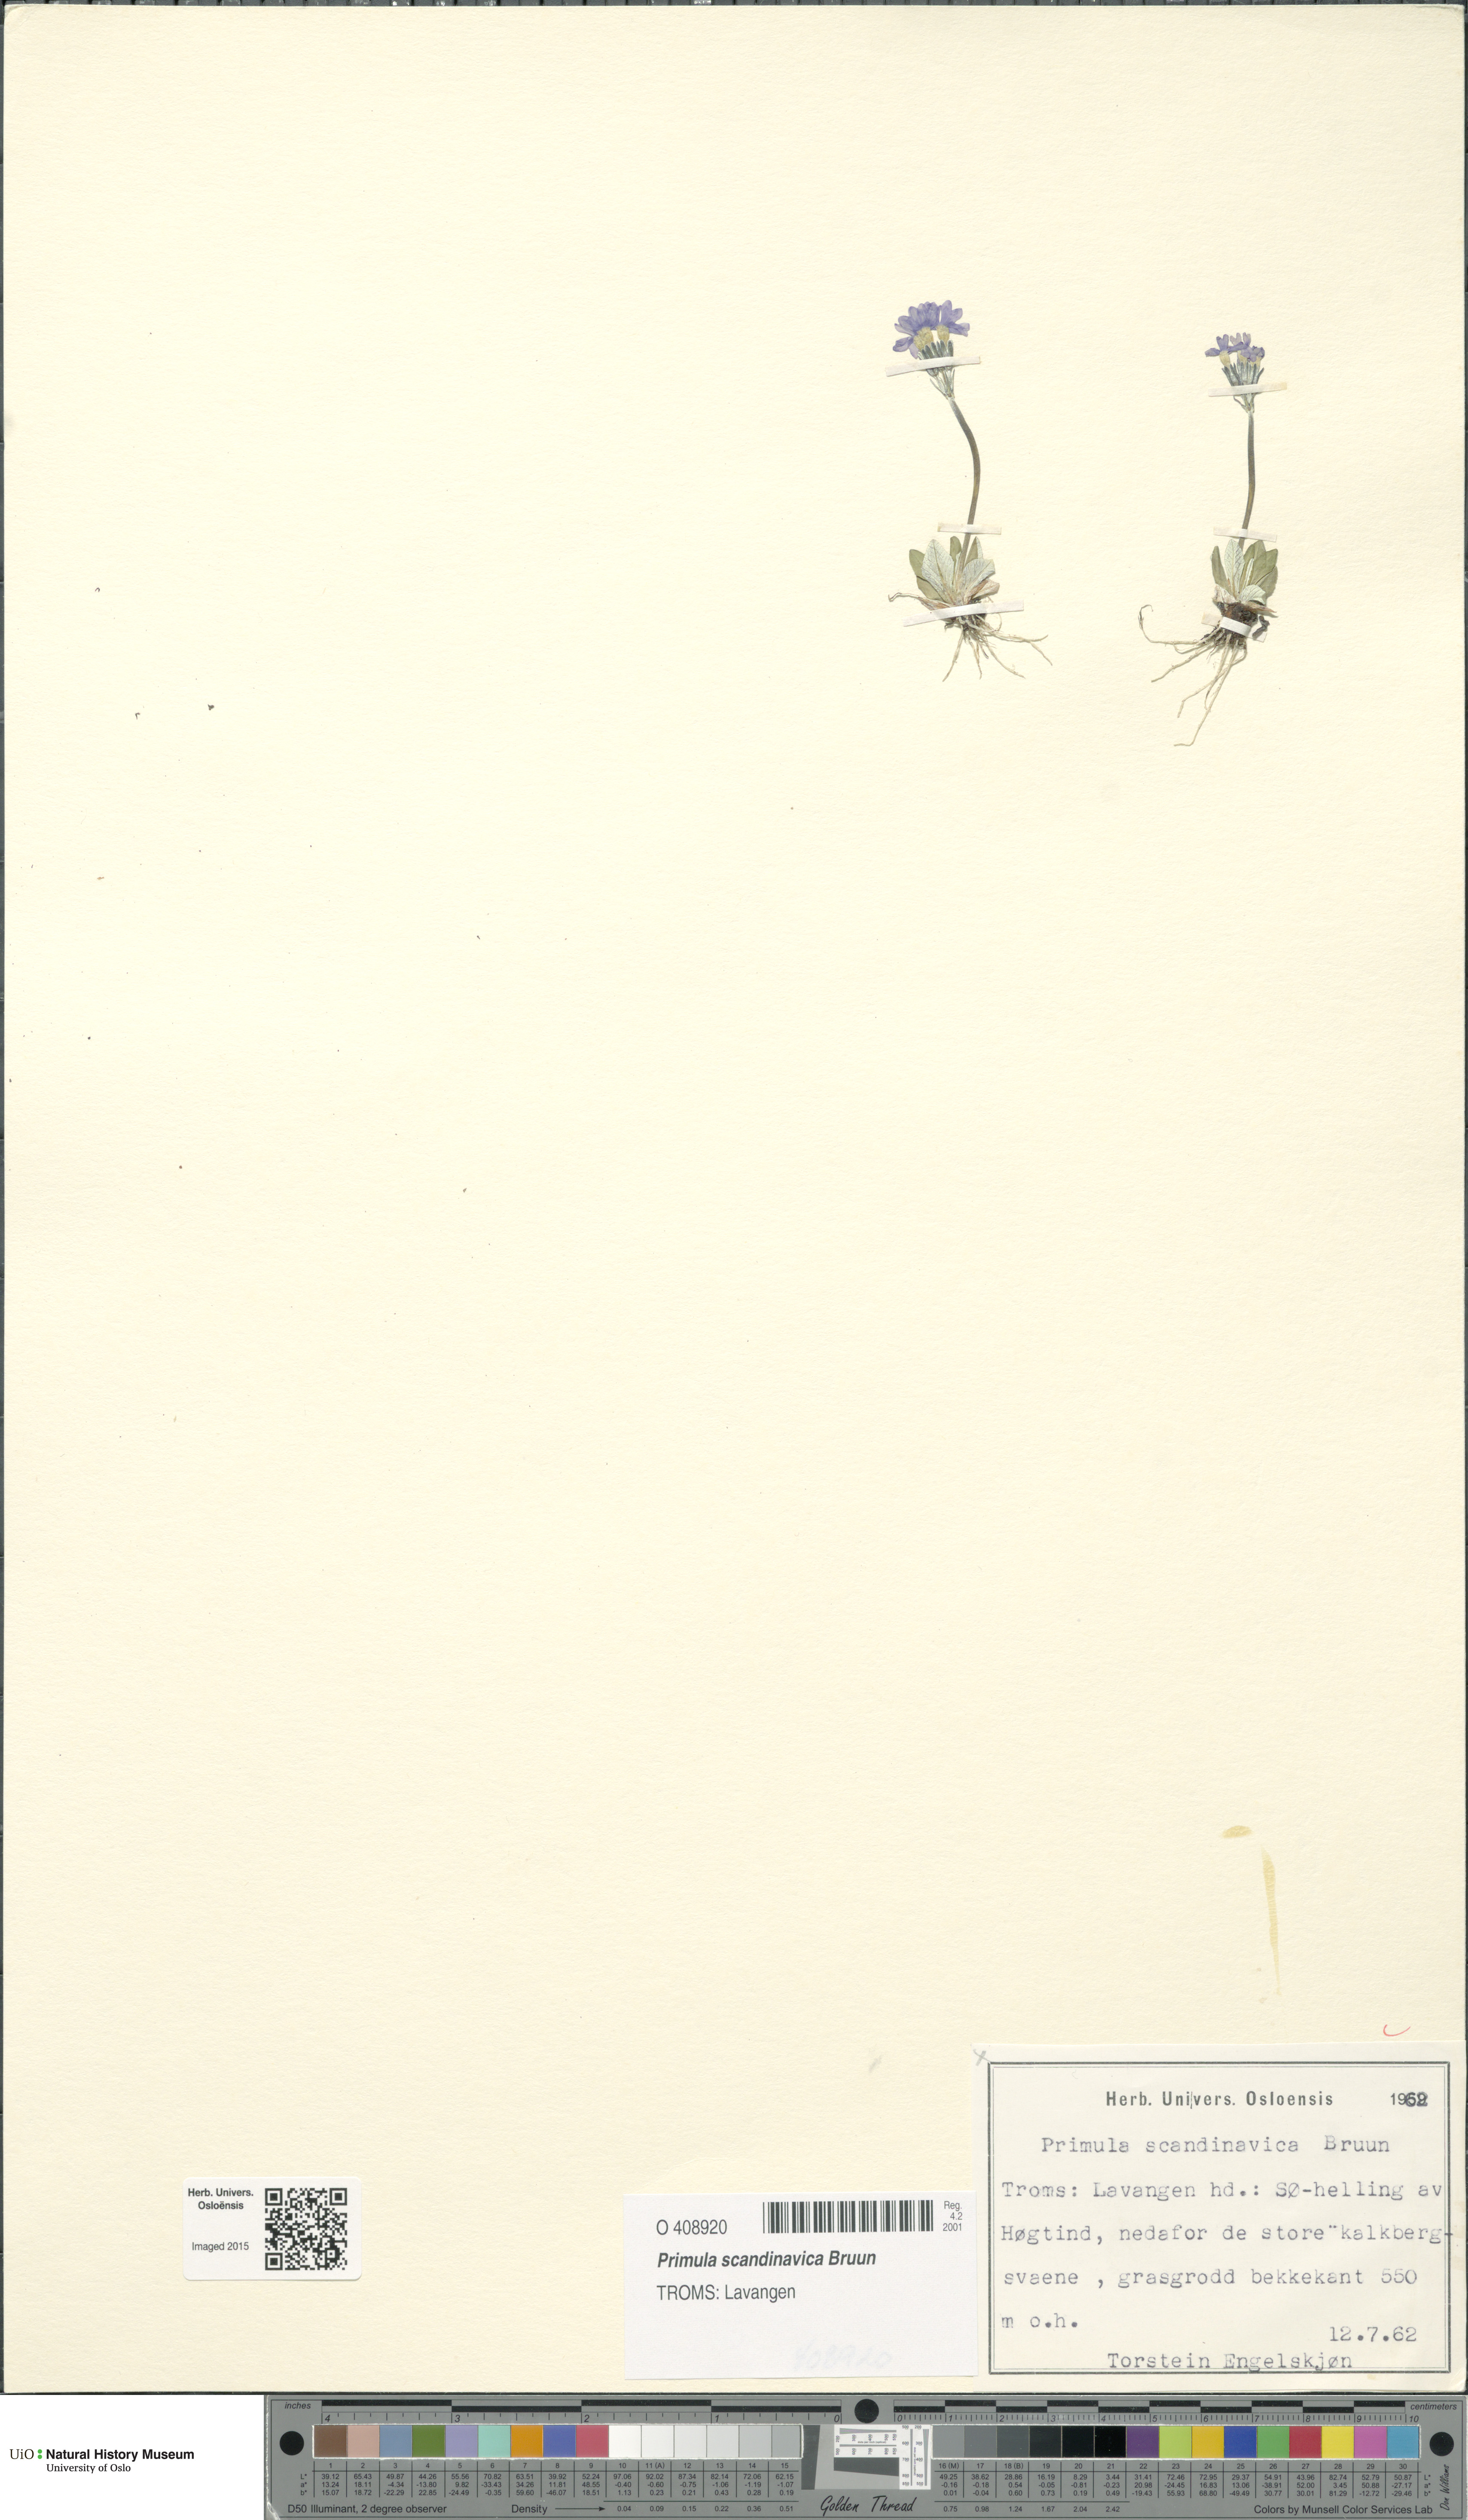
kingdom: Plantae
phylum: Tracheophyta
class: Magnoliopsida
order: Ericales
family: Primulaceae
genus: Primula
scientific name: Primula scandinavica
